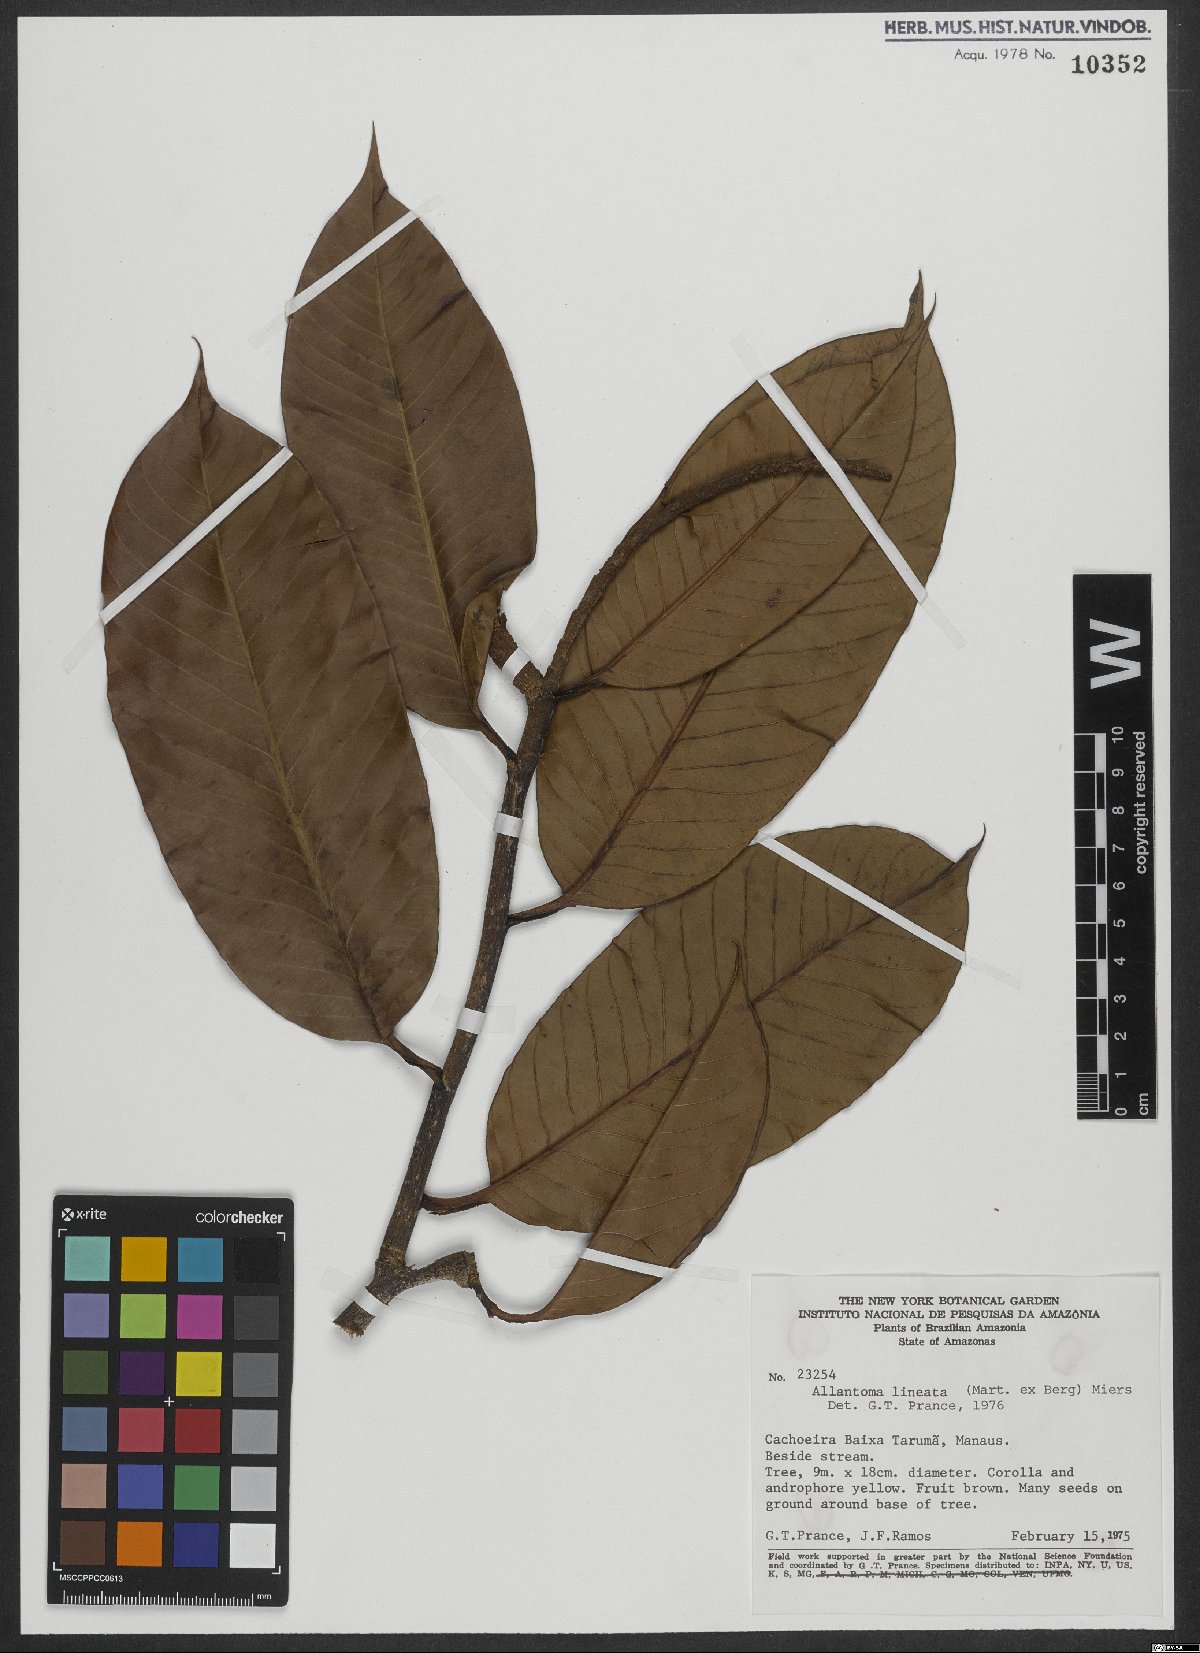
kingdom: Plantae
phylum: Tracheophyta
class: Magnoliopsida
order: Ericales
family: Lecythidaceae
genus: Allantoma
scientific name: Allantoma lineata
